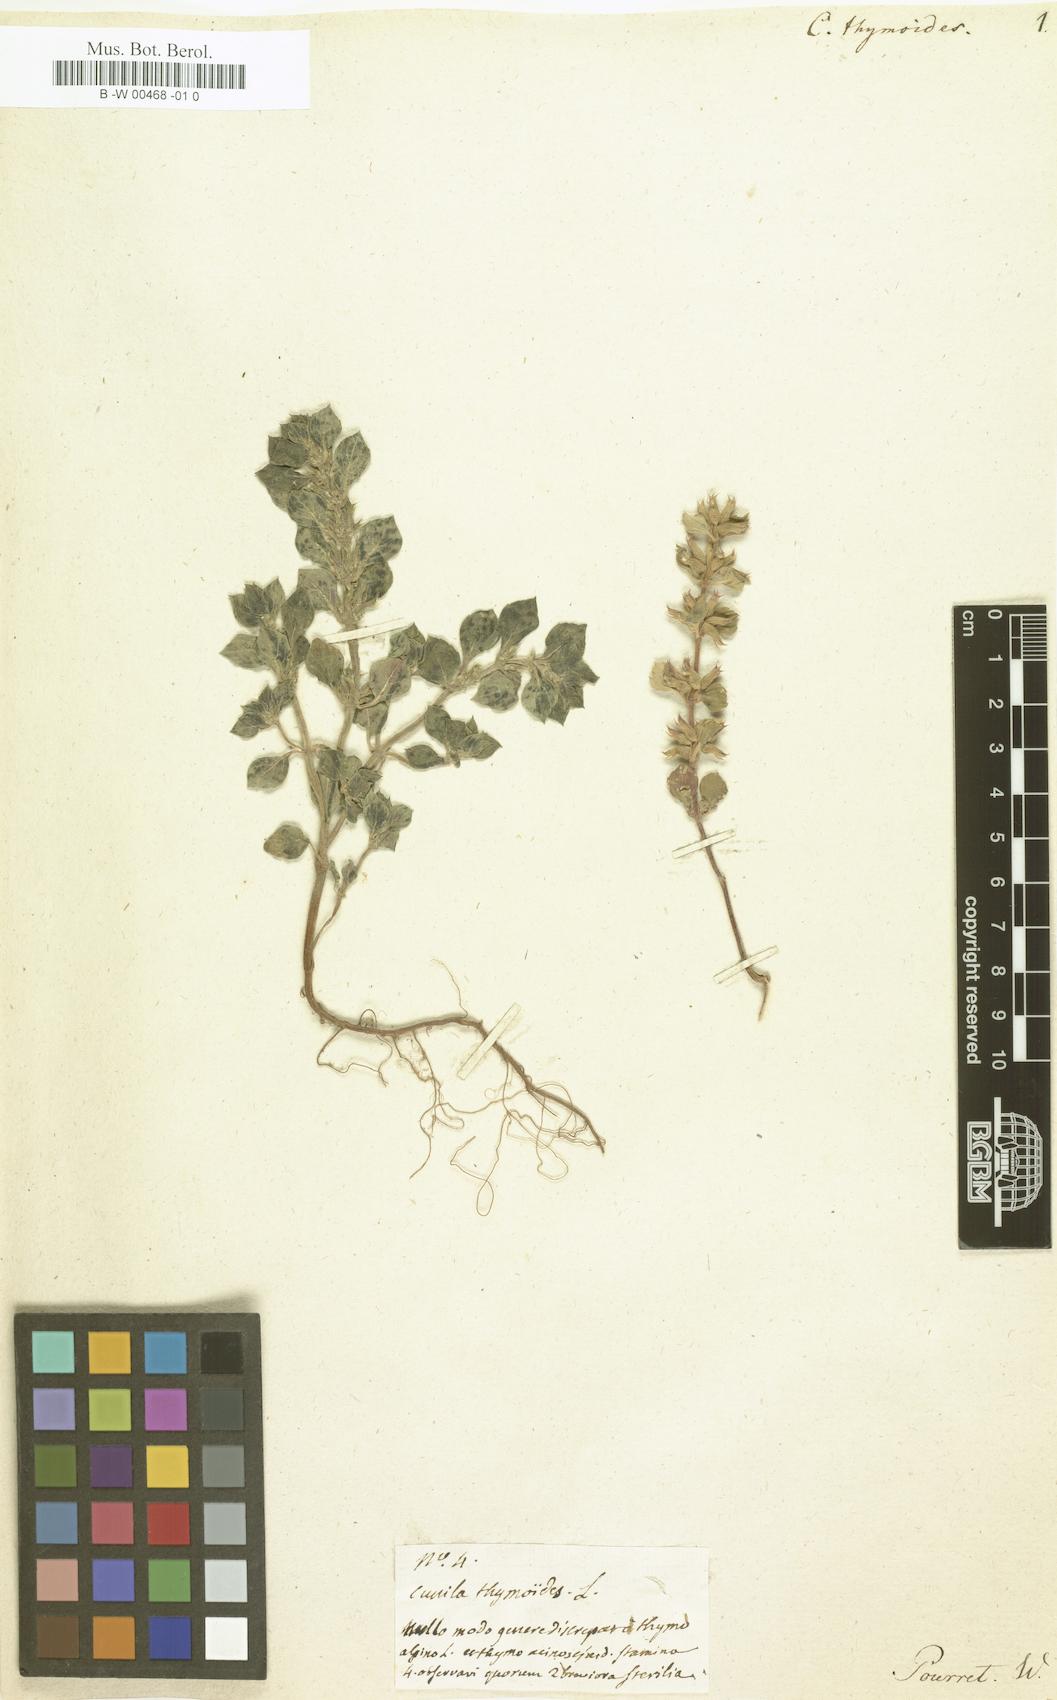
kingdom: Plantae
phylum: Tracheophyta
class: Magnoliopsida
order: Lamiales
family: Lamiaceae
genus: Cunila
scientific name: Cunila thymoides
